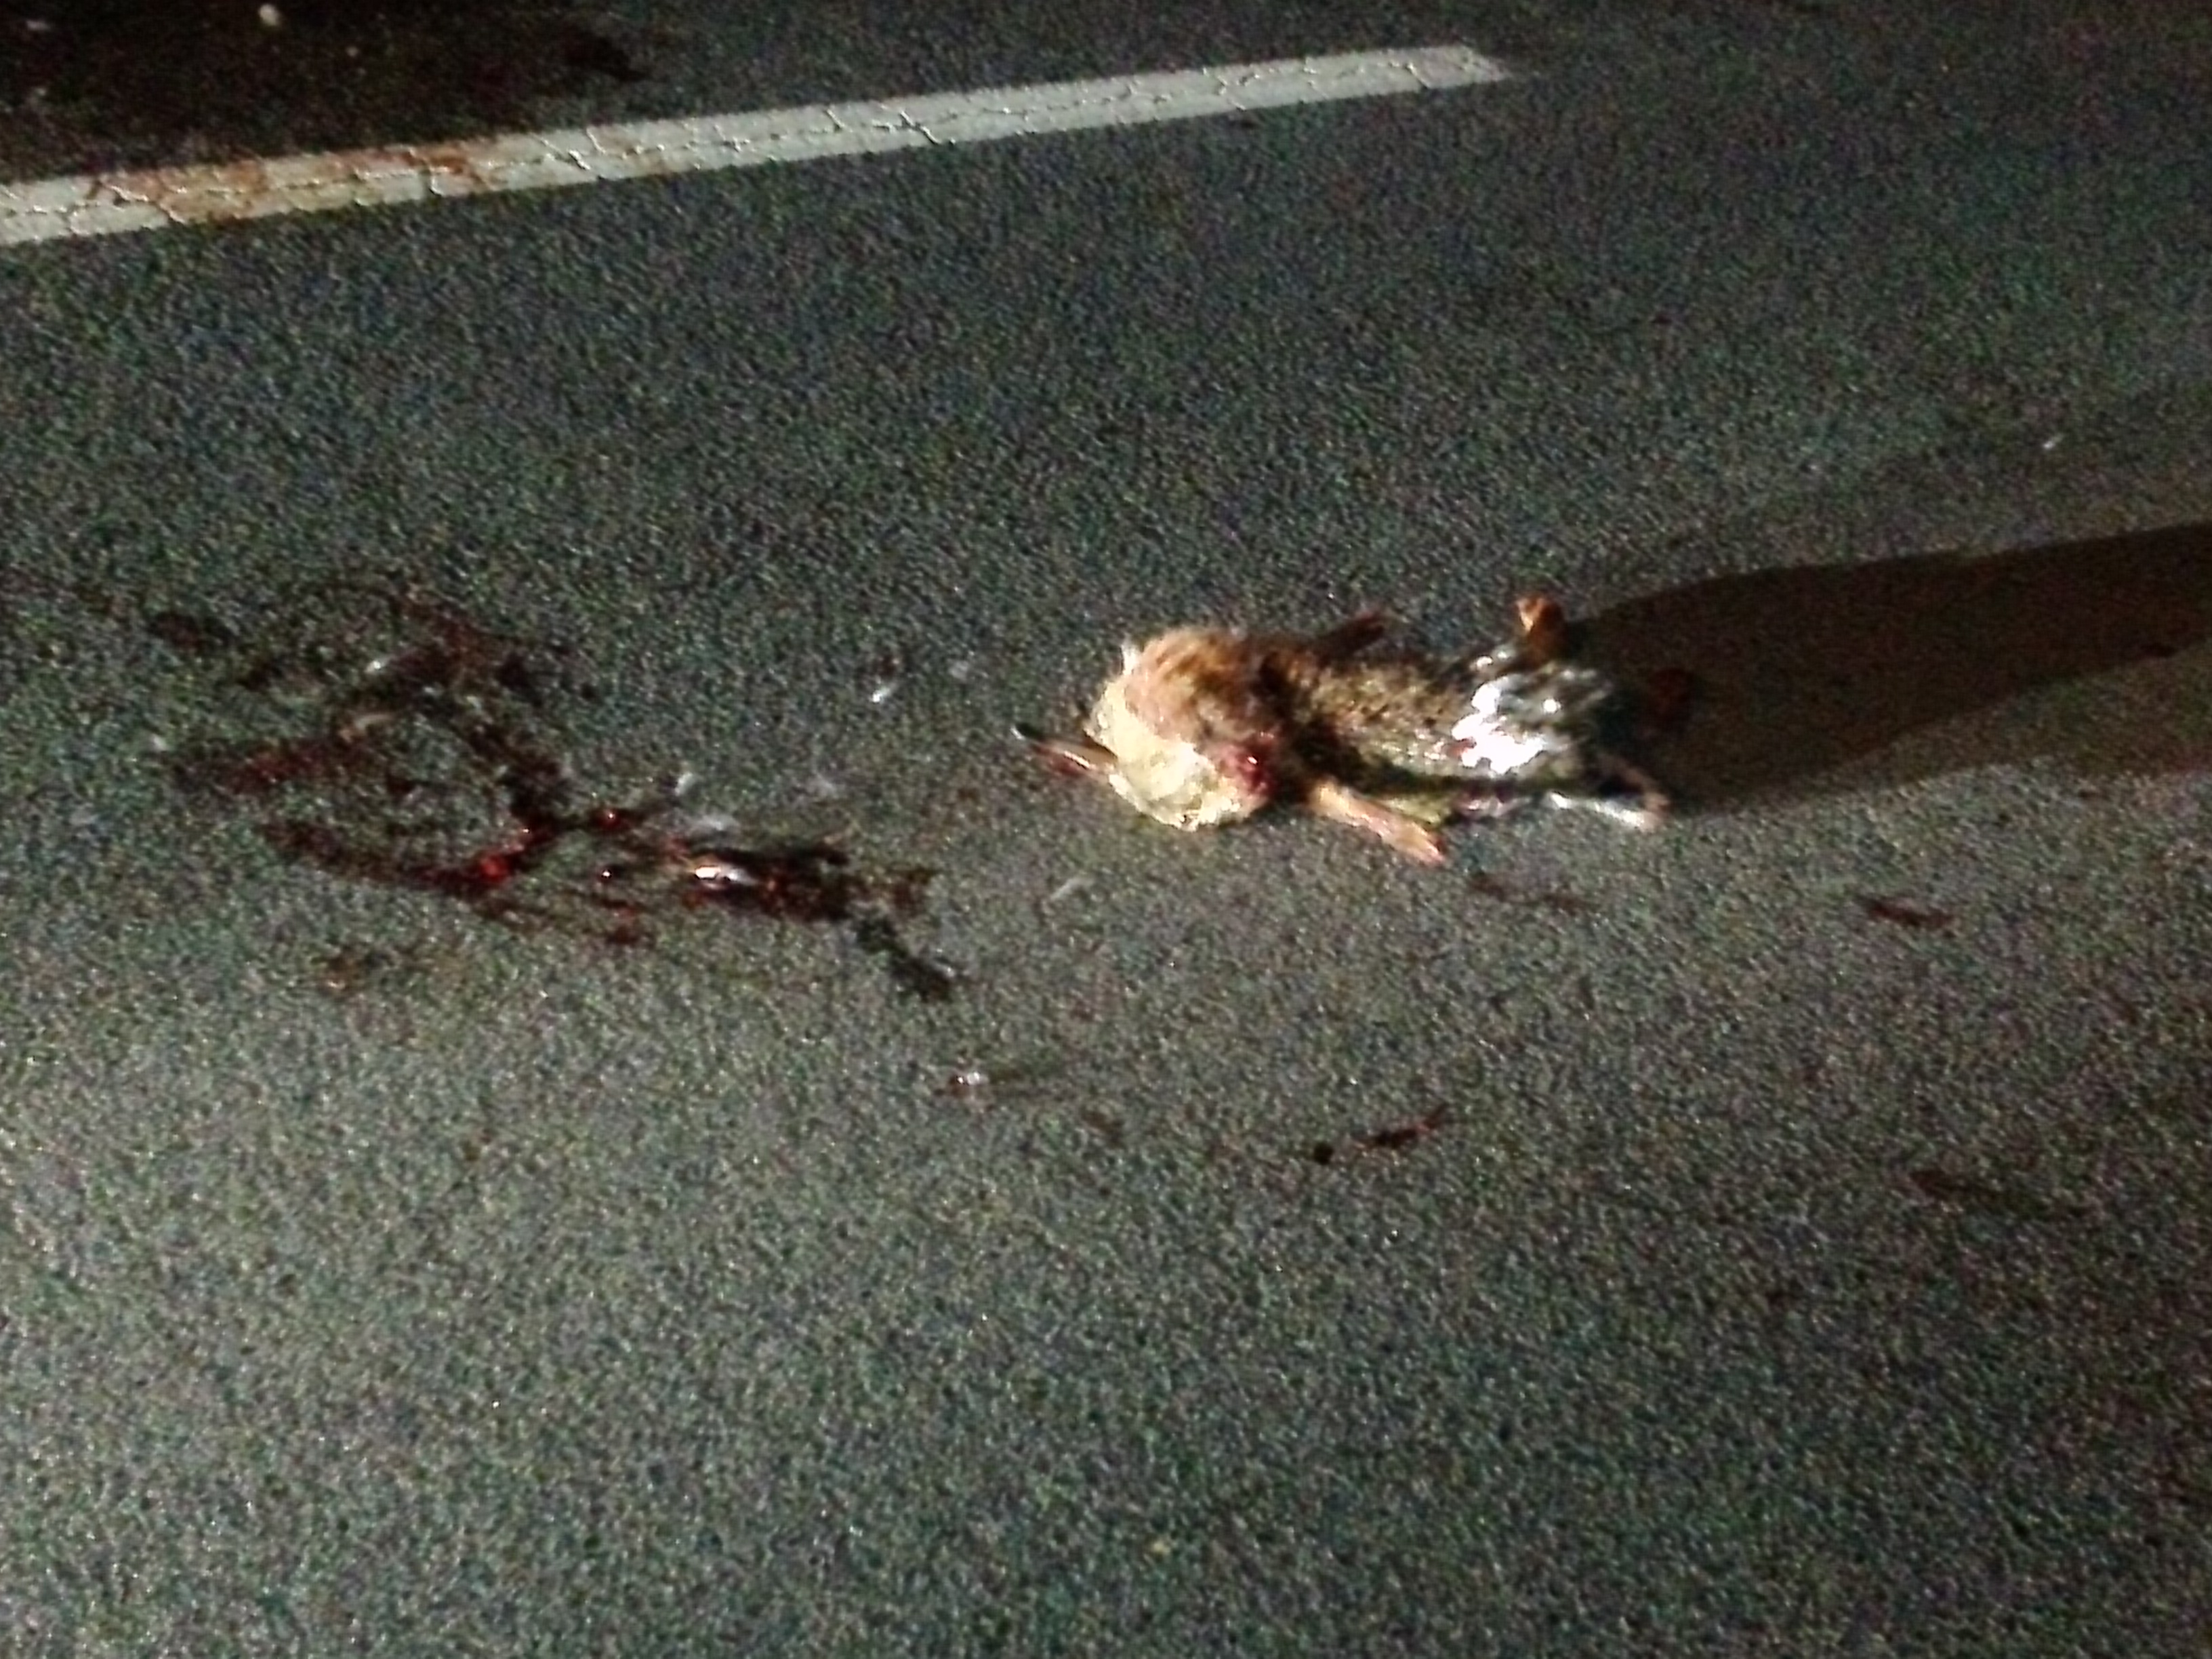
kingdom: Animalia
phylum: Chordata
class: Mammalia
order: Lagomorpha
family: Leporidae
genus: Lepus
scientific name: Lepus europaeus
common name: European hare
